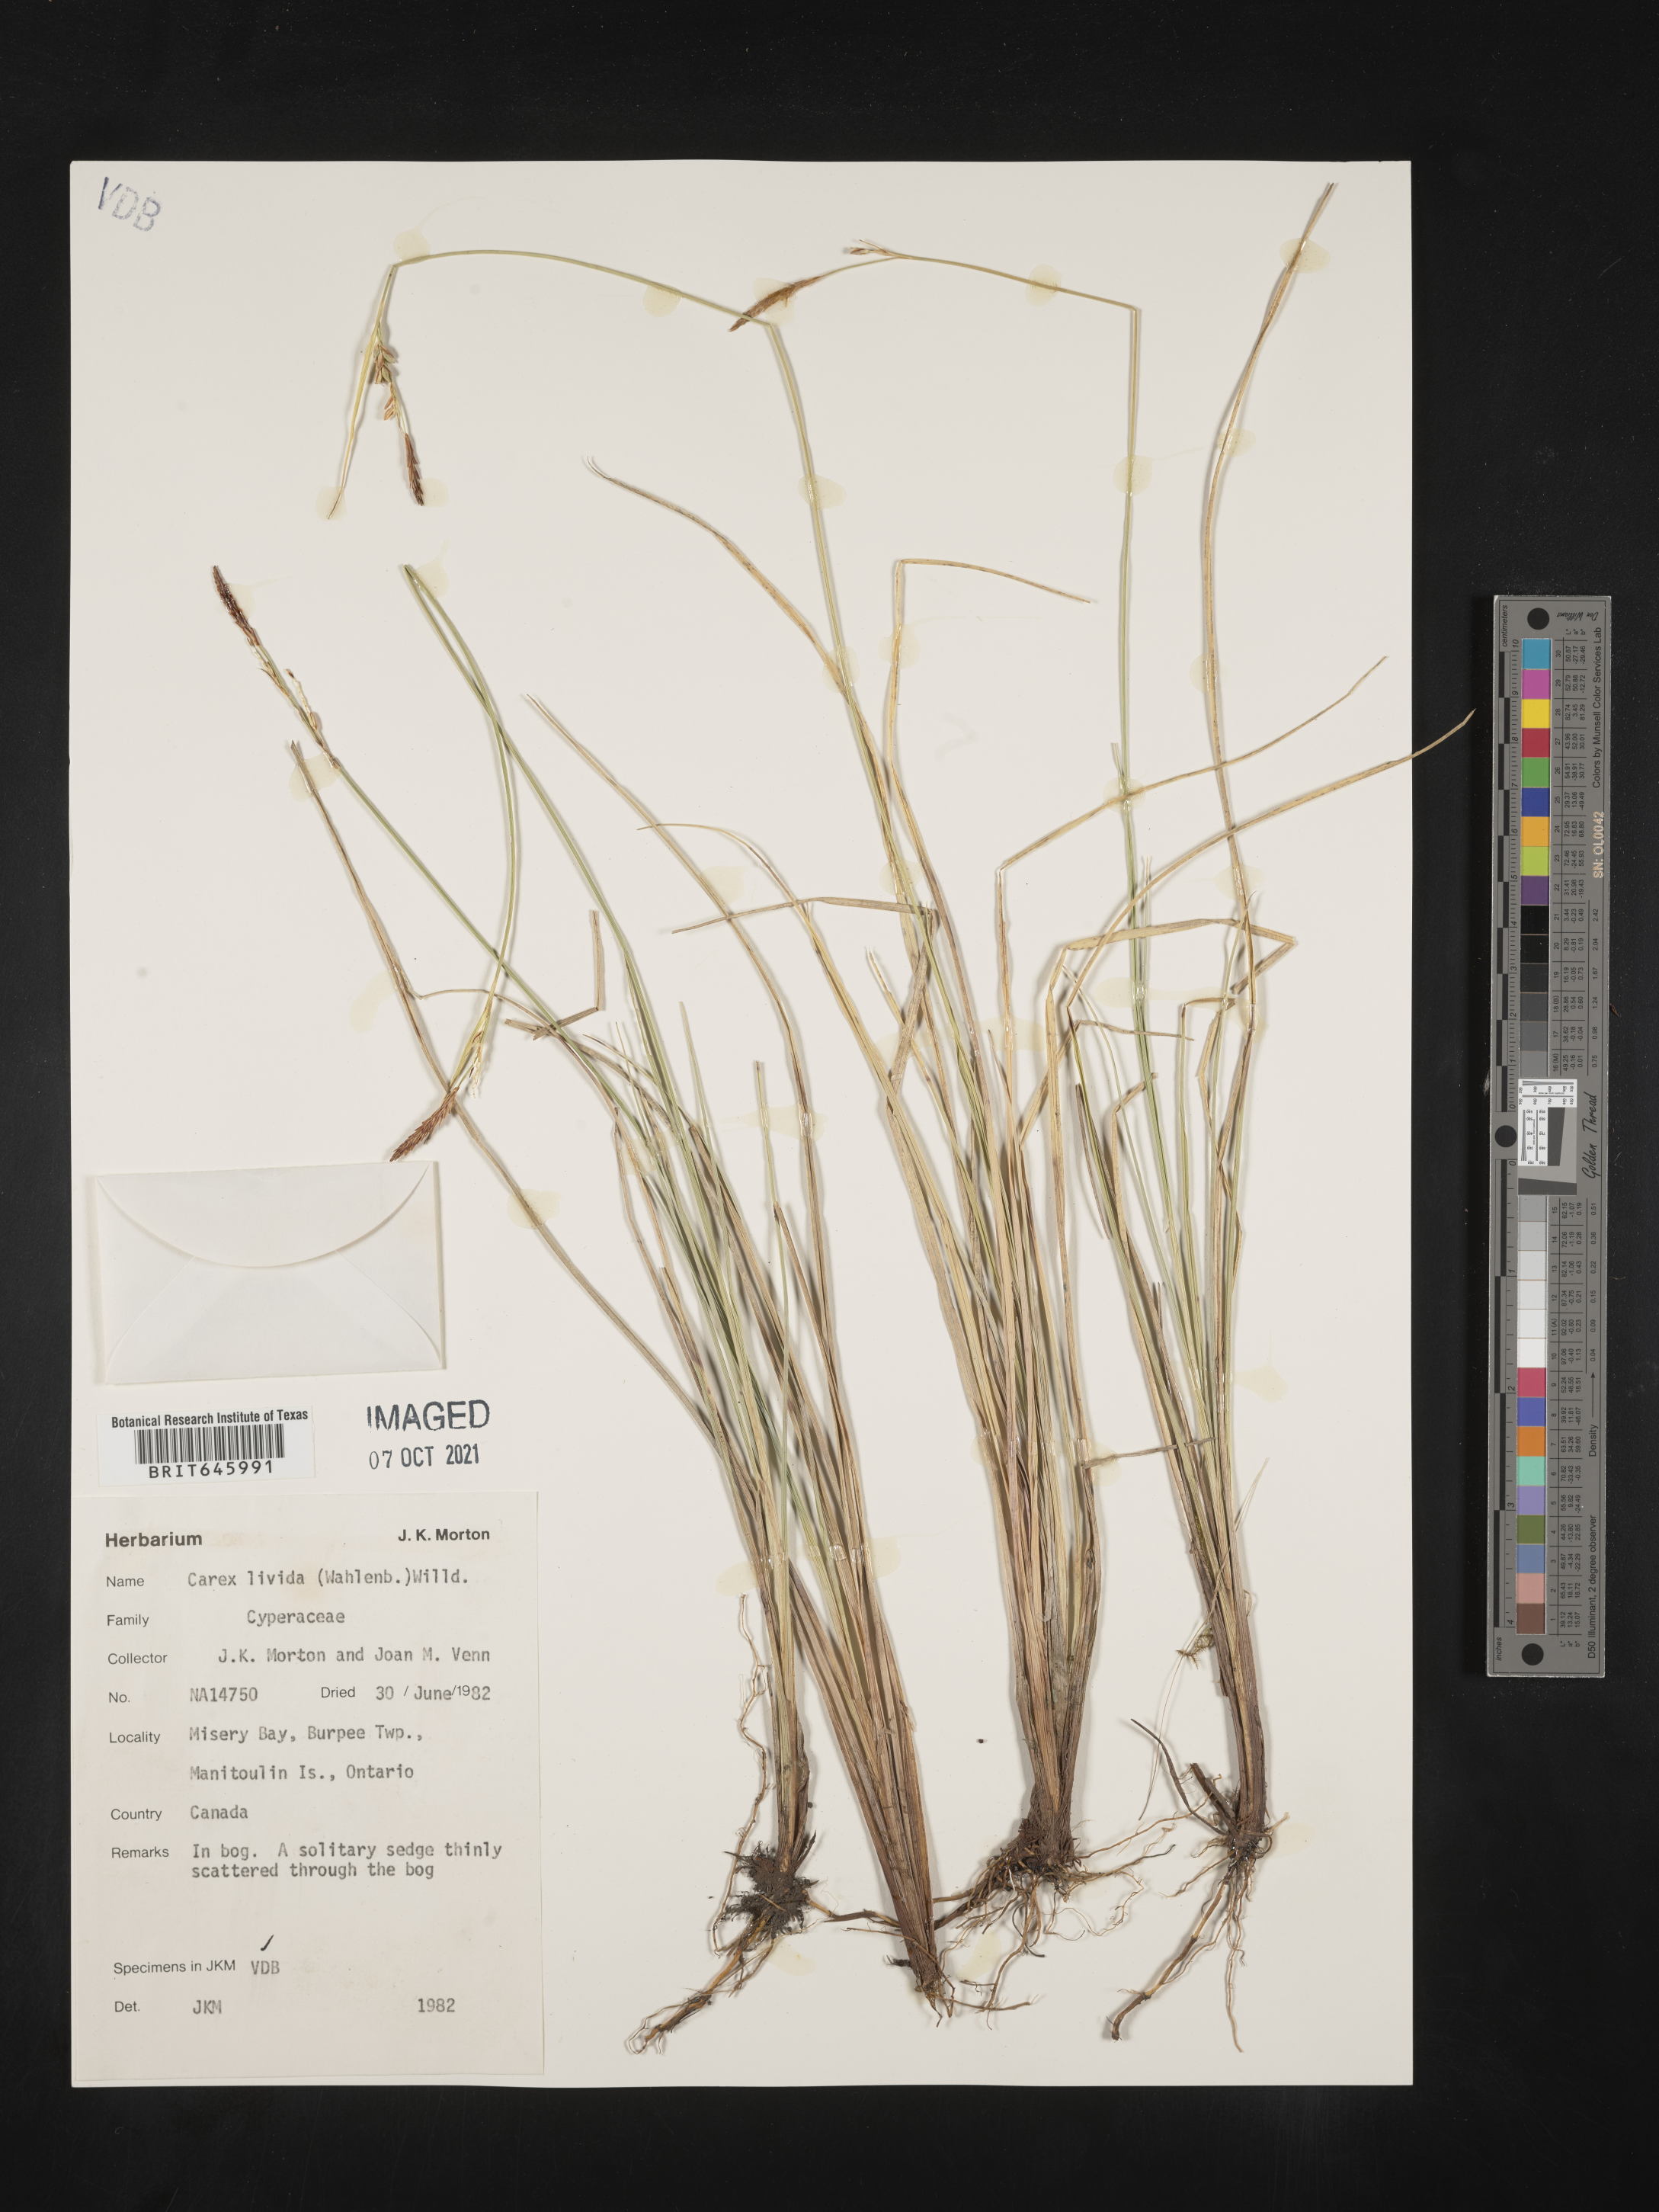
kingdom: Plantae
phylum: Tracheophyta
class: Liliopsida
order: Poales
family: Cyperaceae
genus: Carex
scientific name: Carex livida
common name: Livid sedge
